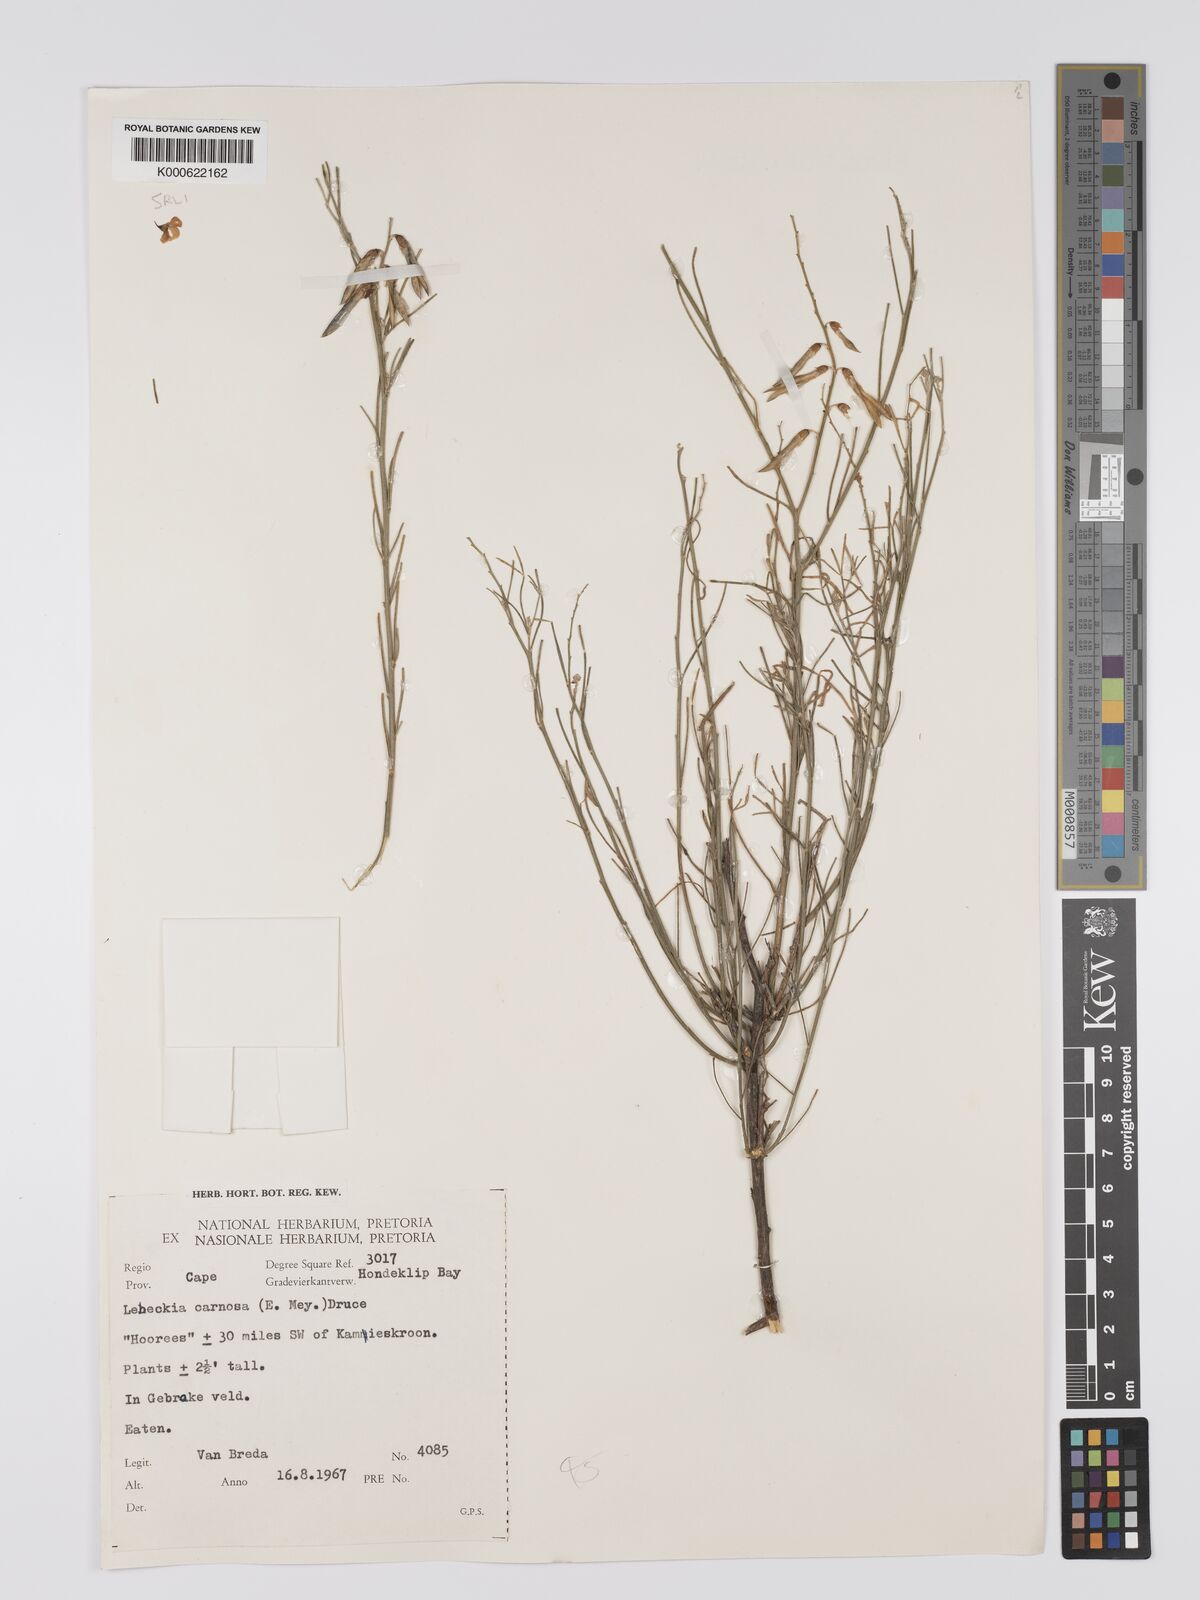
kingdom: Plantae
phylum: Tracheophyta
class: Magnoliopsida
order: Fabales
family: Fabaceae
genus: Lebeckia
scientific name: Lebeckia contaminata
